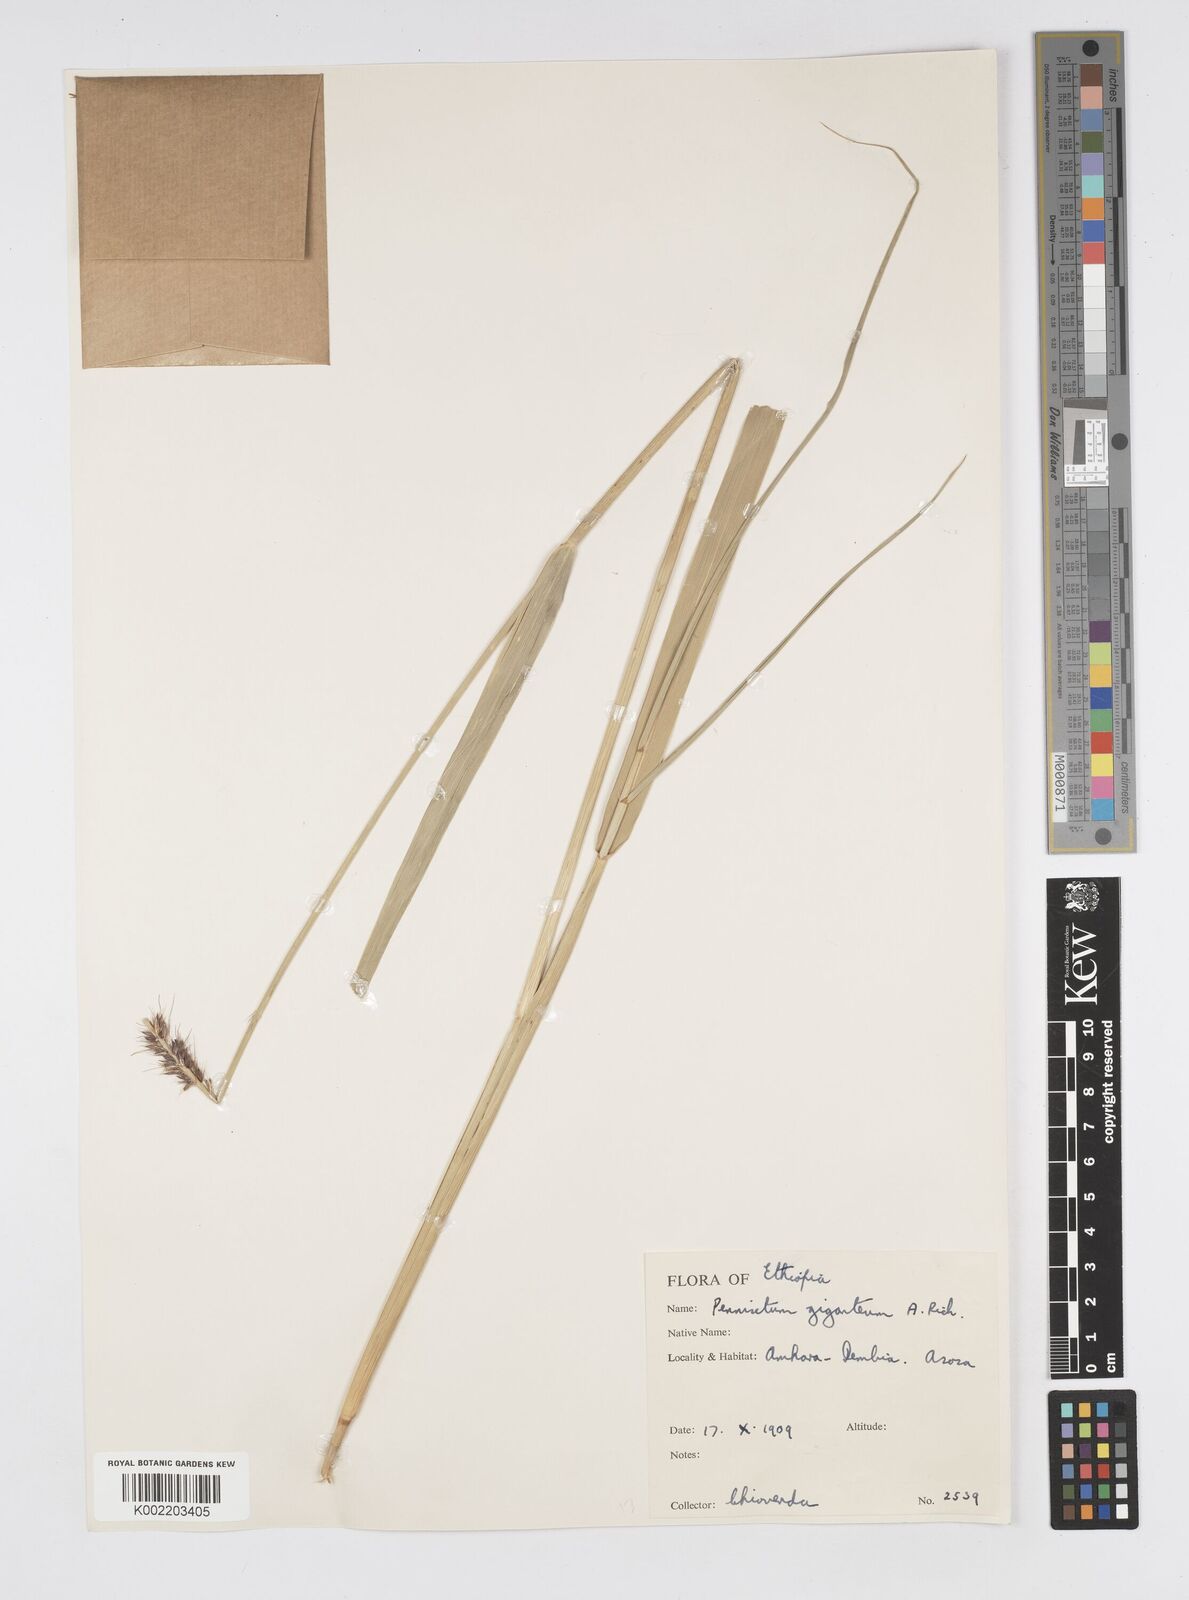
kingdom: Plantae
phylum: Tracheophyta
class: Liliopsida
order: Poales
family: Poaceae
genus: Cenchrus
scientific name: Cenchrus caudatus
